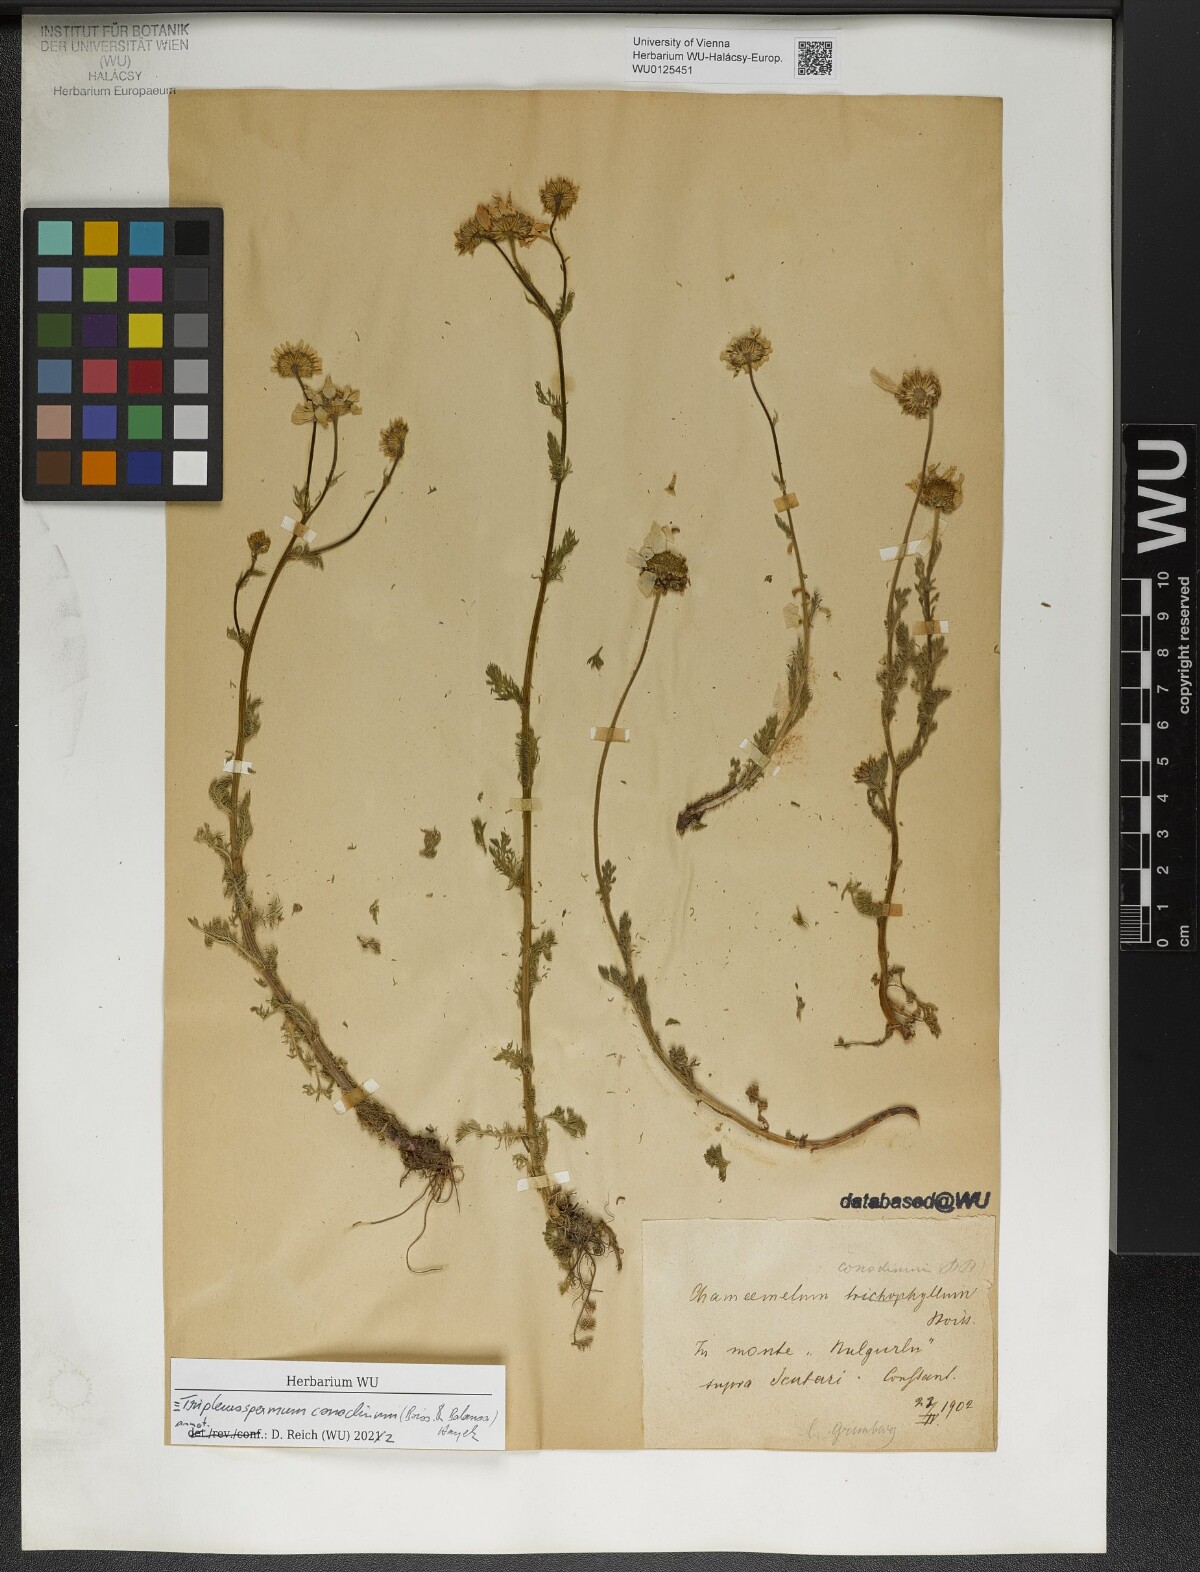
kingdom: Plantae
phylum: Tracheophyta
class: Magnoliopsida
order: Asterales
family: Asteraceae
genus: Tripleurospermum
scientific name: Tripleurospermum conoclinium
